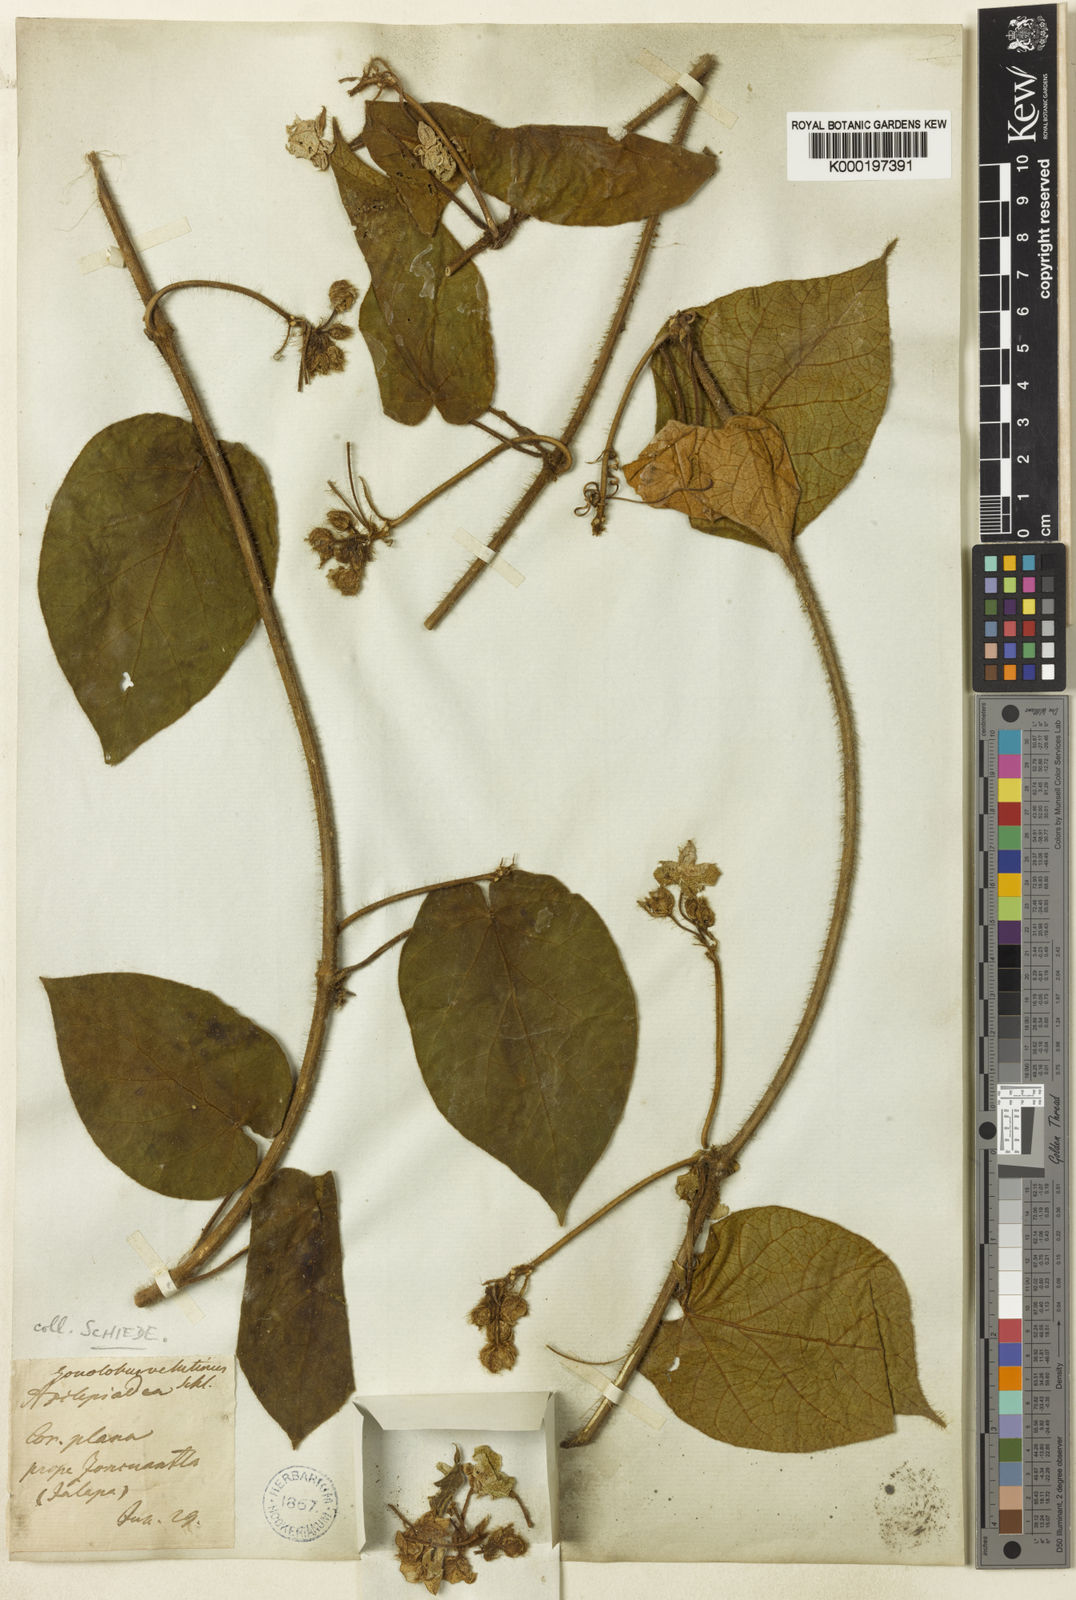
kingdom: Plantae
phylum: Tracheophyta
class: Magnoliopsida
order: Gentianales
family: Apocynaceae
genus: Matelea
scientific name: Matelea velutina
